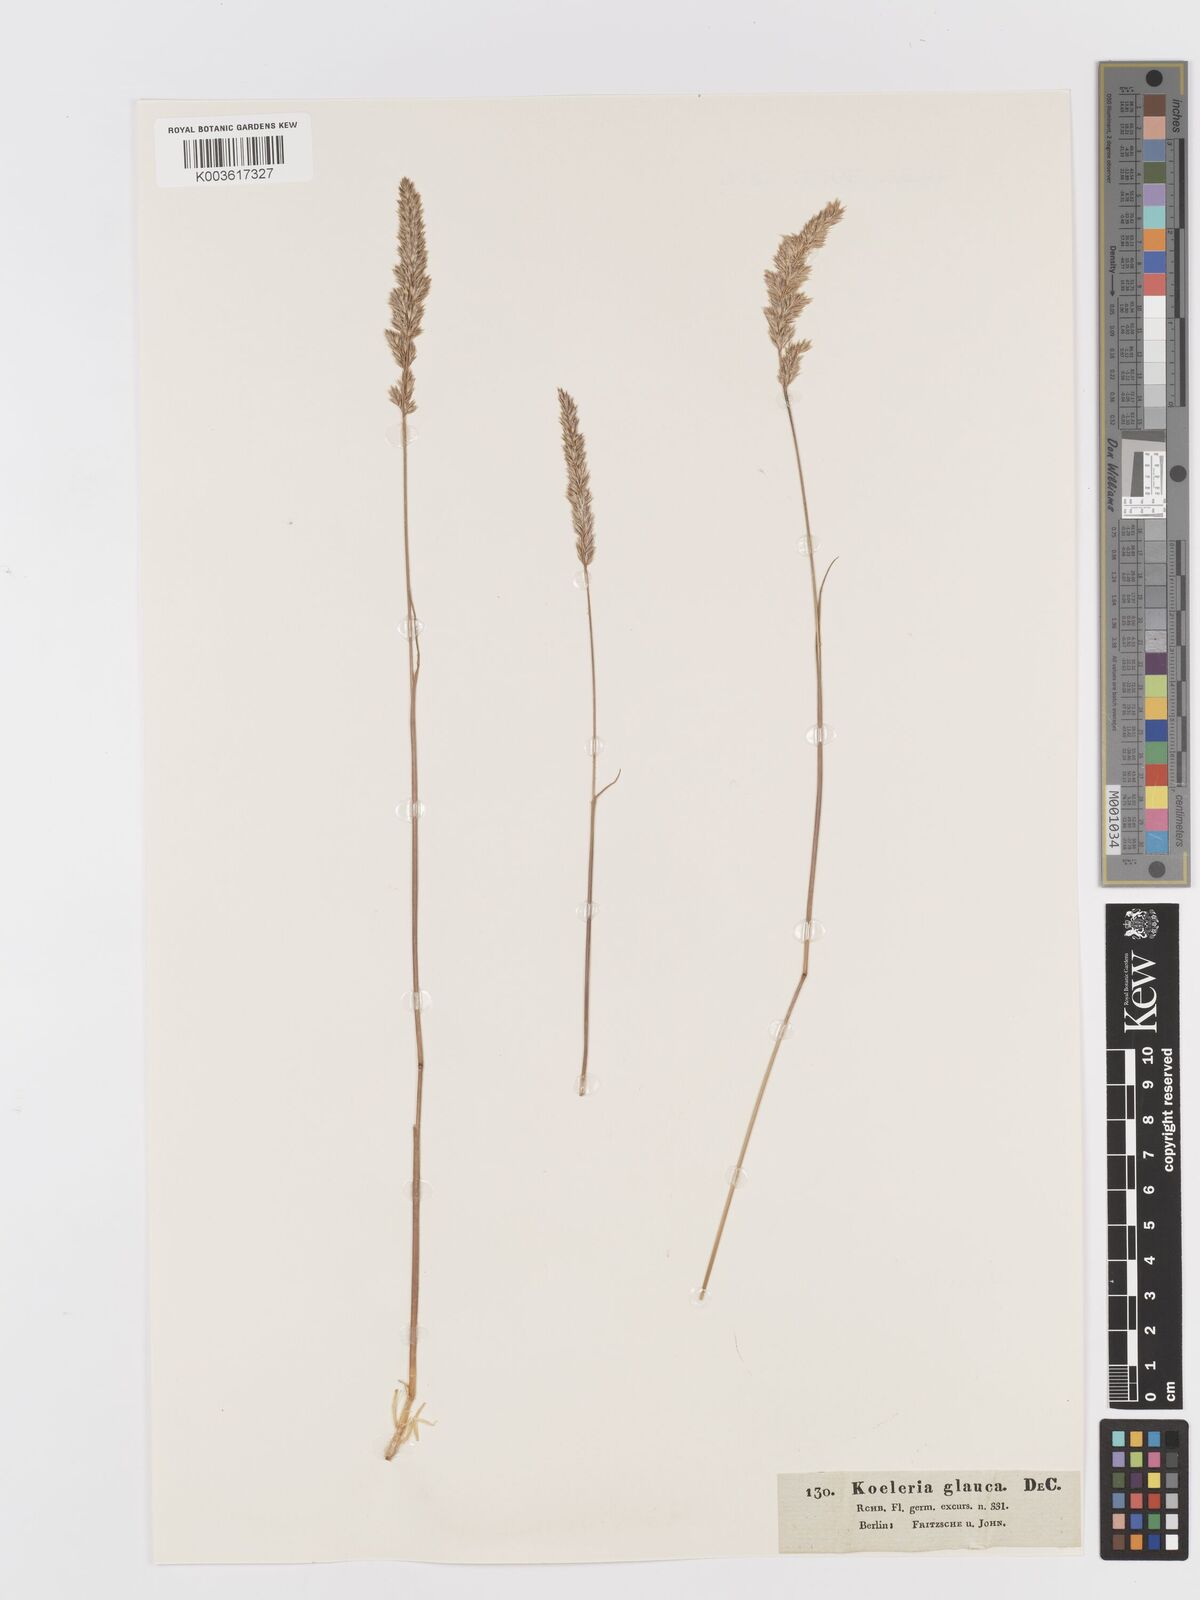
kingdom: Plantae
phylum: Tracheophyta
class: Liliopsida
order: Poales
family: Poaceae
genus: Koeleria
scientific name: Koeleria glauca
